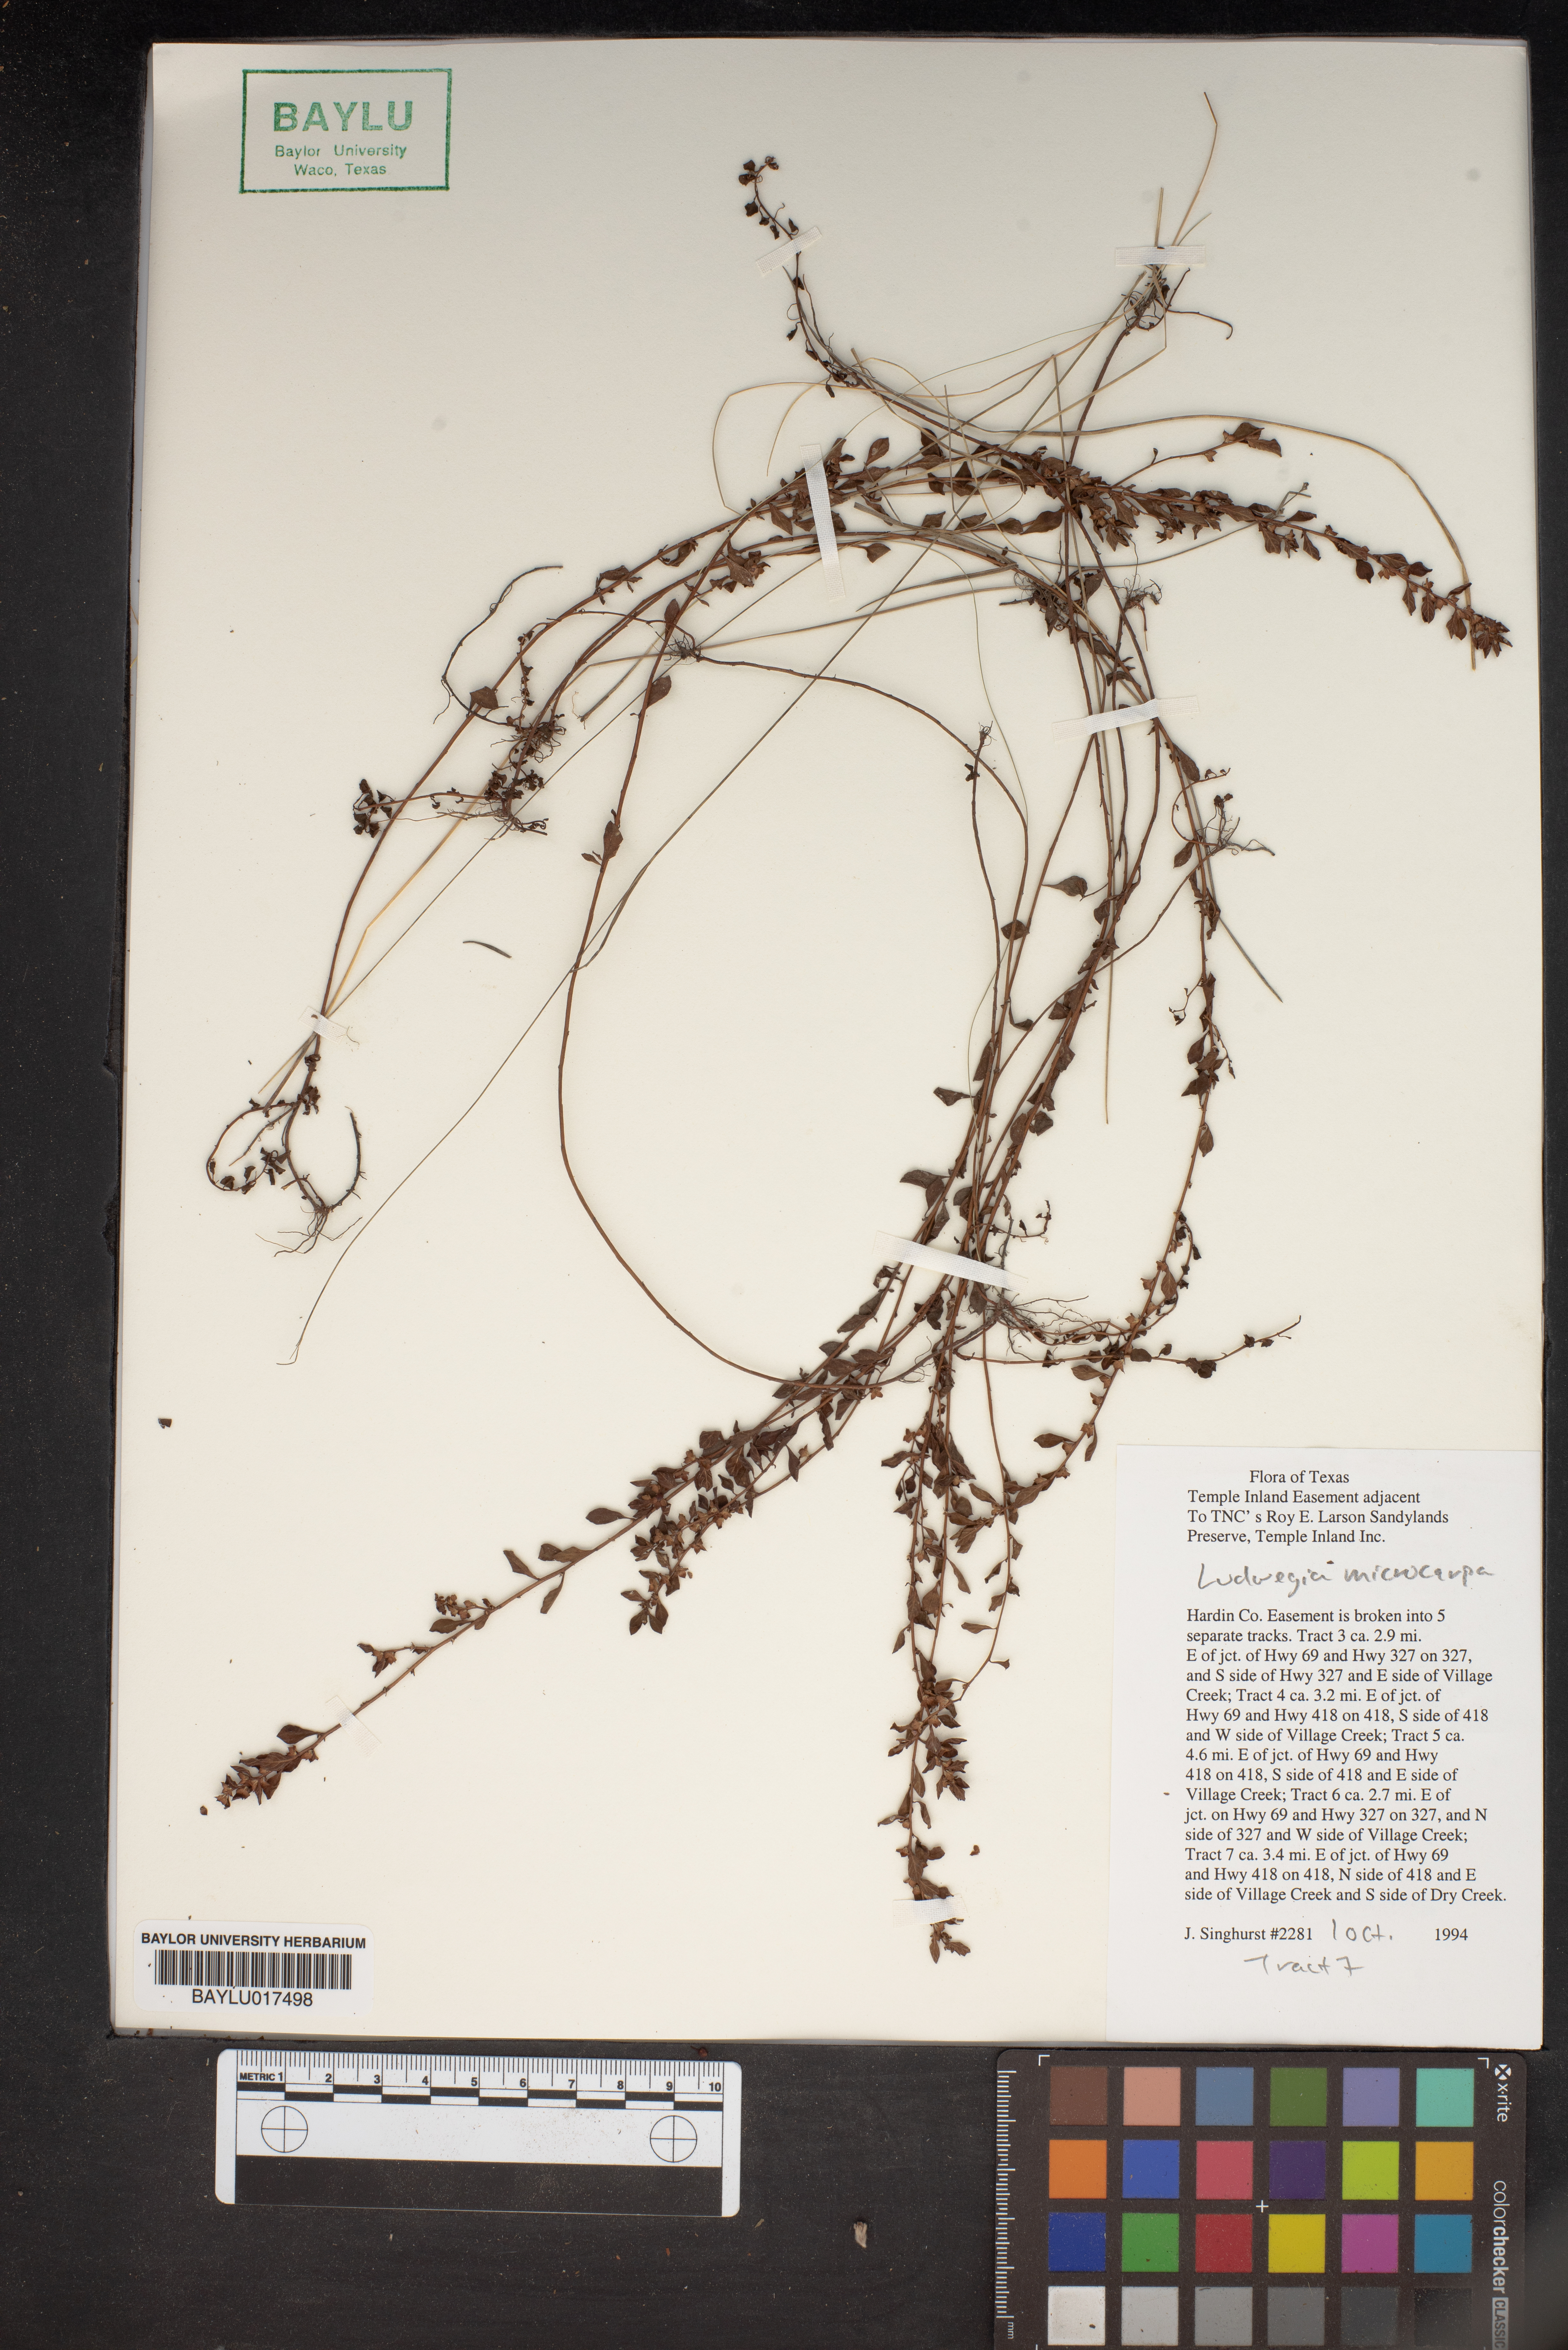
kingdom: Plantae
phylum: Tracheophyta
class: Magnoliopsida
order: Myrtales
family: Onagraceae
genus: Ludwigia
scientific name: Ludwigia microcarpa
